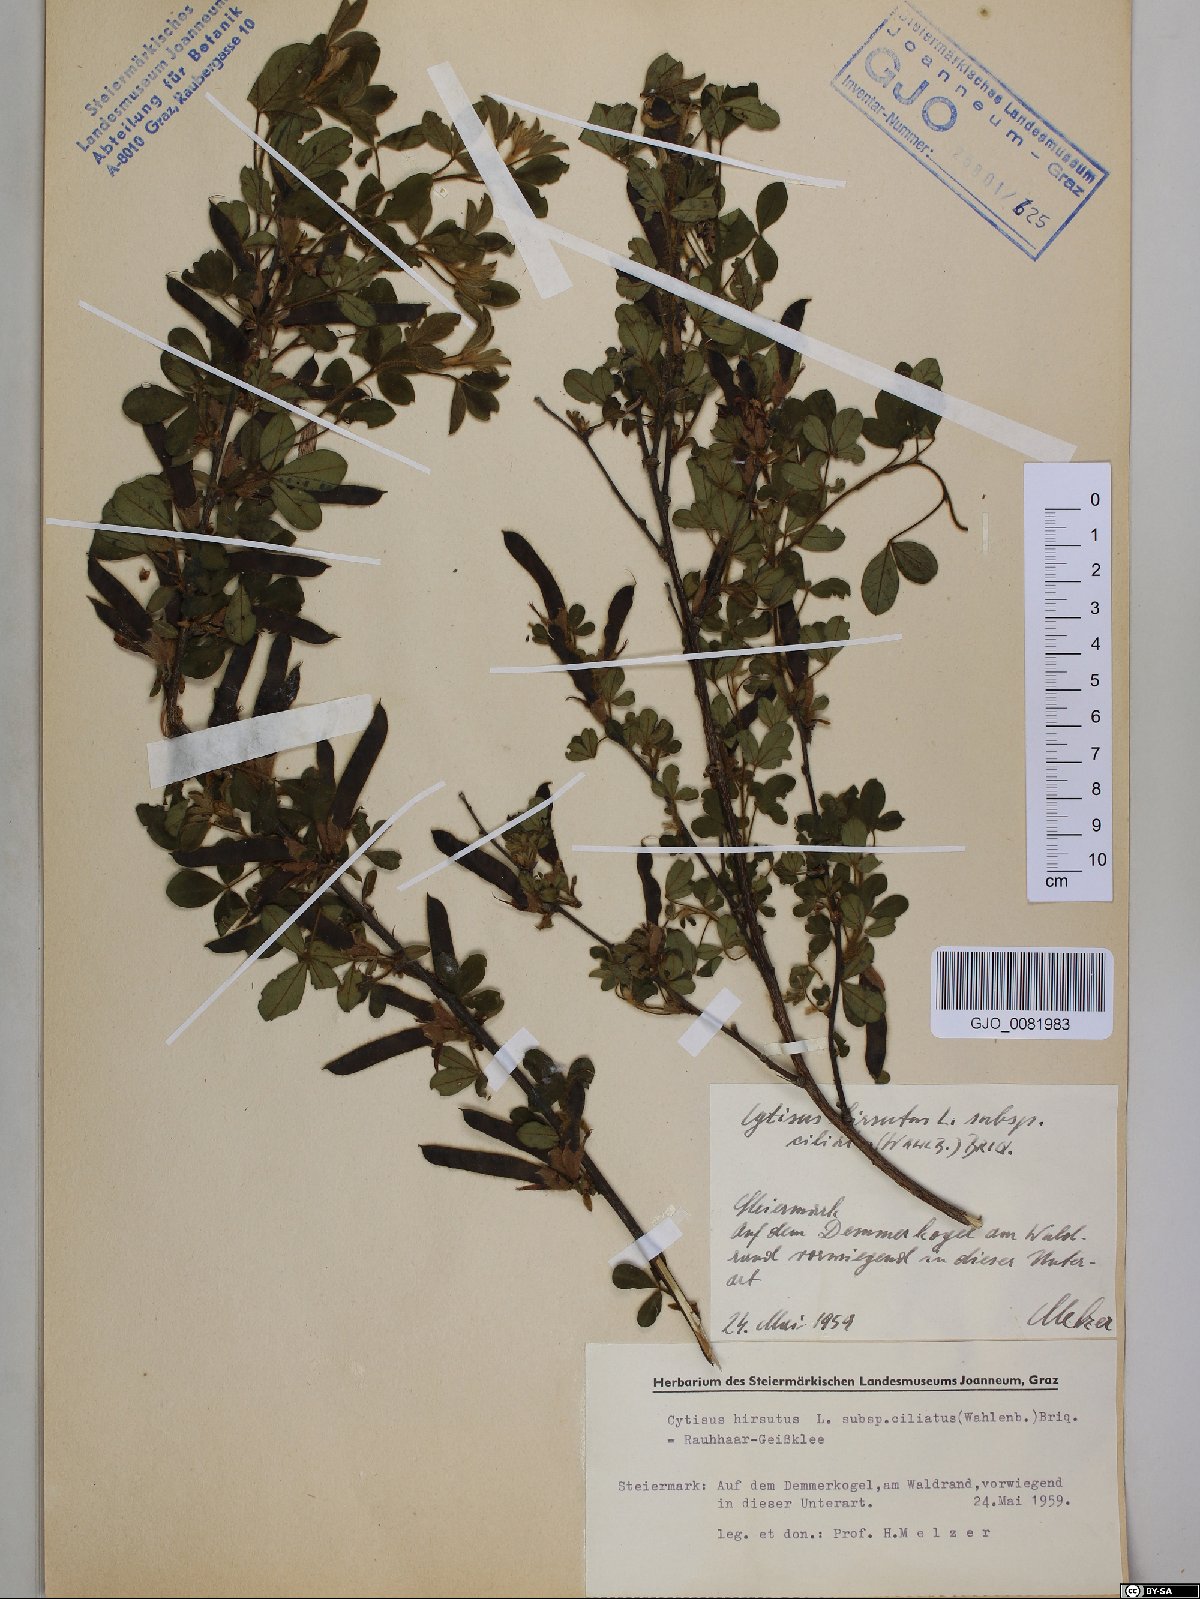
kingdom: Plantae
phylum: Tracheophyta
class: Magnoliopsida
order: Fabales
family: Fabaceae
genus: Chamaecytisus
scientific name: Chamaecytisus hirsutus
